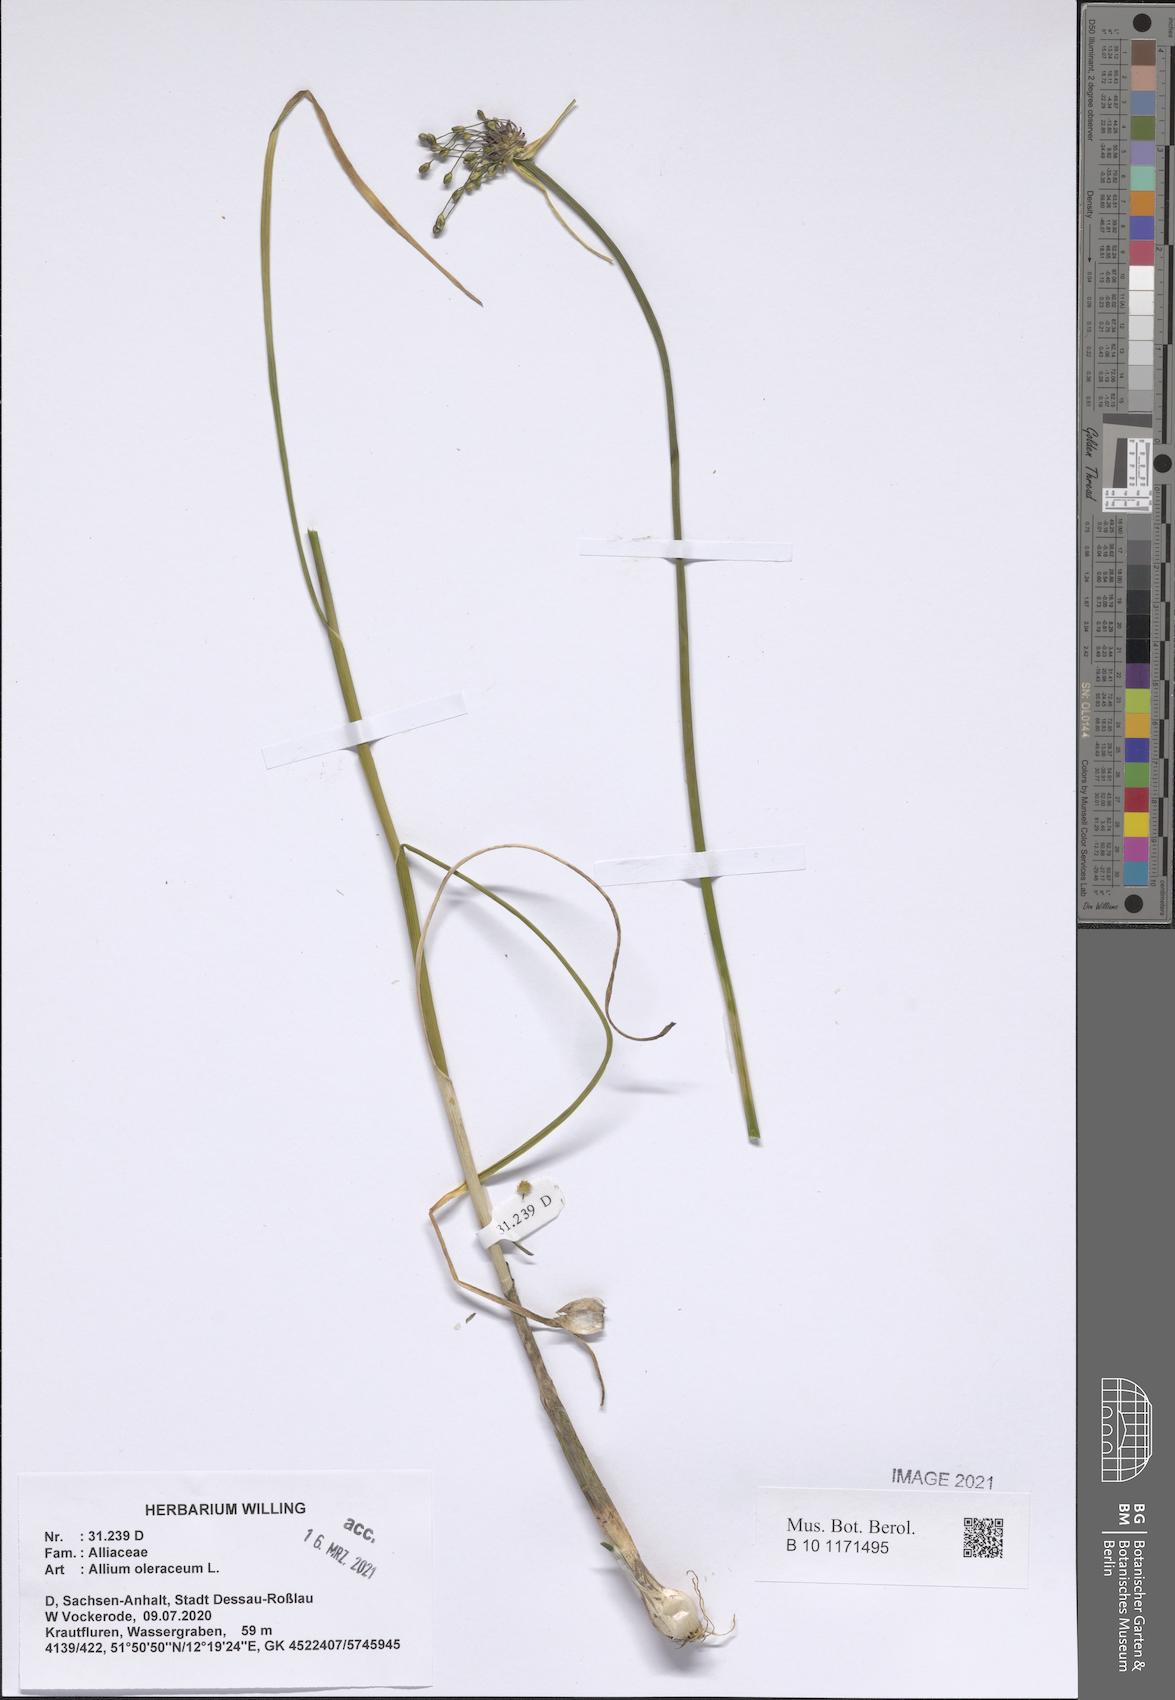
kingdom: Plantae
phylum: Tracheophyta
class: Liliopsida
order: Asparagales
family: Amaryllidaceae
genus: Allium
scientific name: Allium oleraceum
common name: Field garlic
